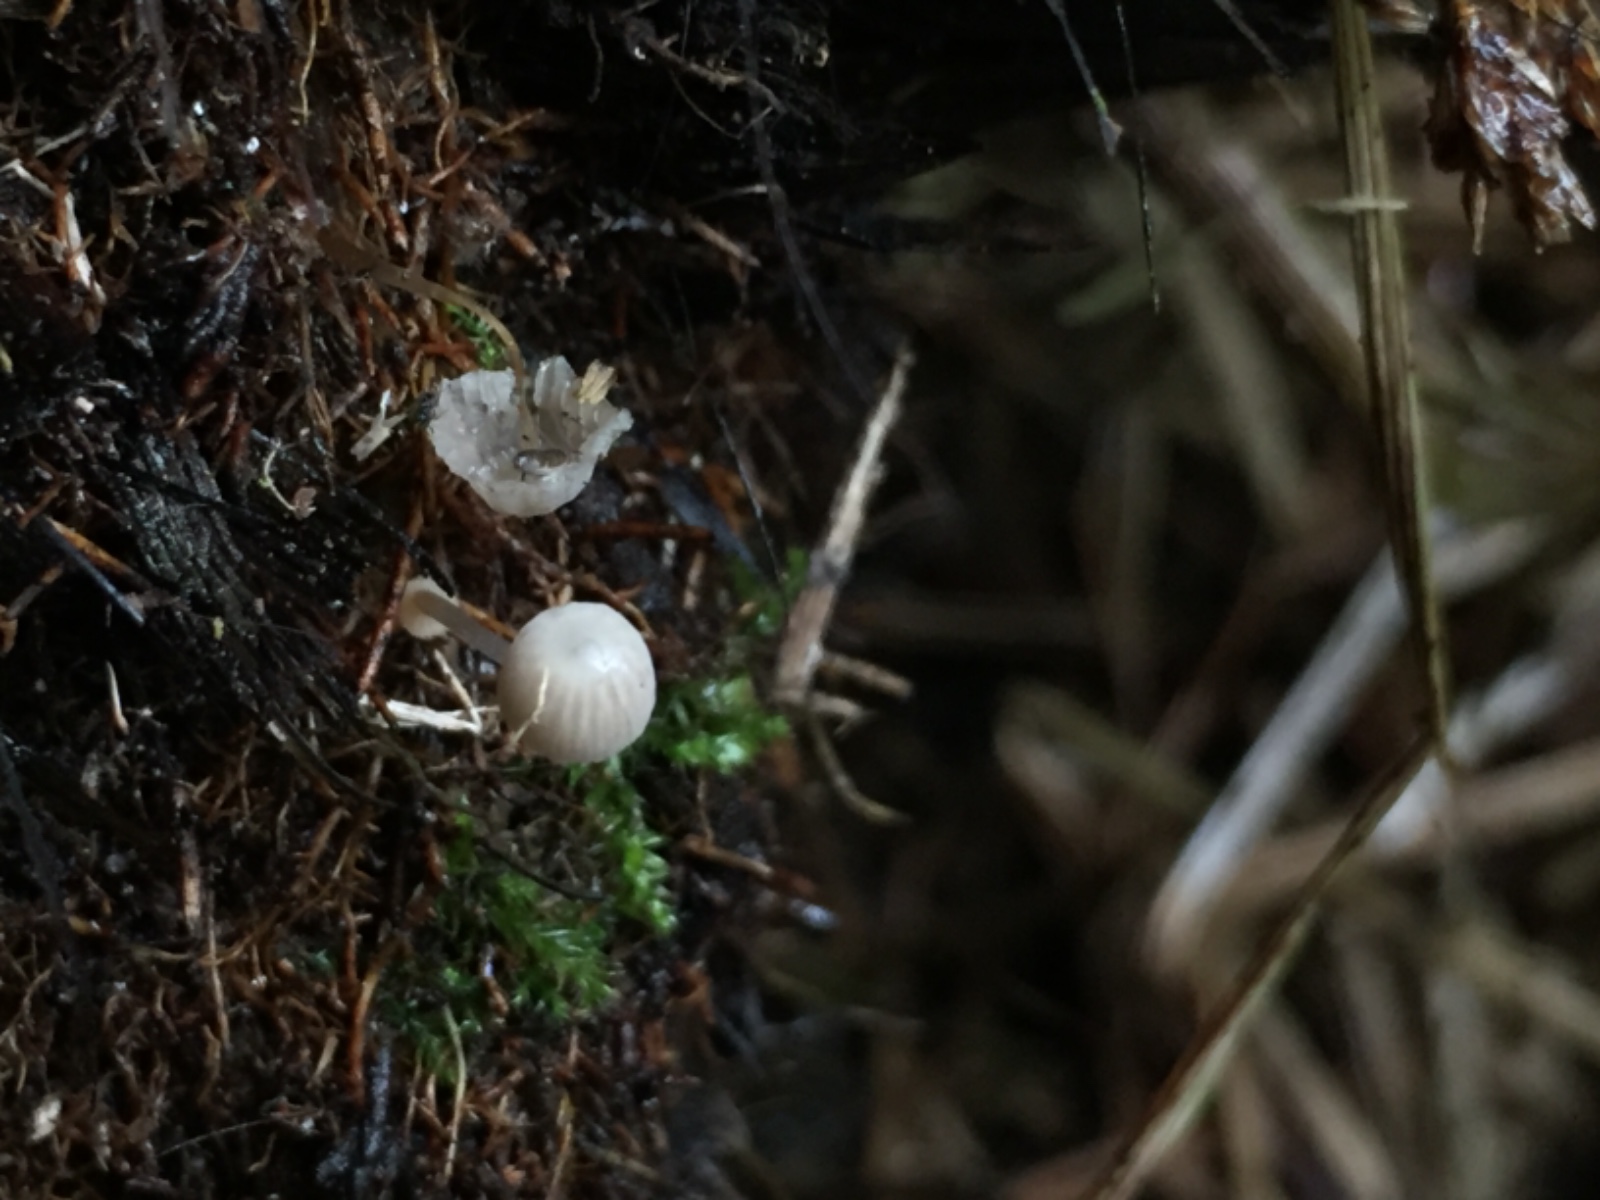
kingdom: Fungi
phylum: Basidiomycota
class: Agaricomycetes
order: Agaricales
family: Mycenaceae
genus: Mycena
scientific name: Mycena bulbosa
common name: siv-huesvamp
